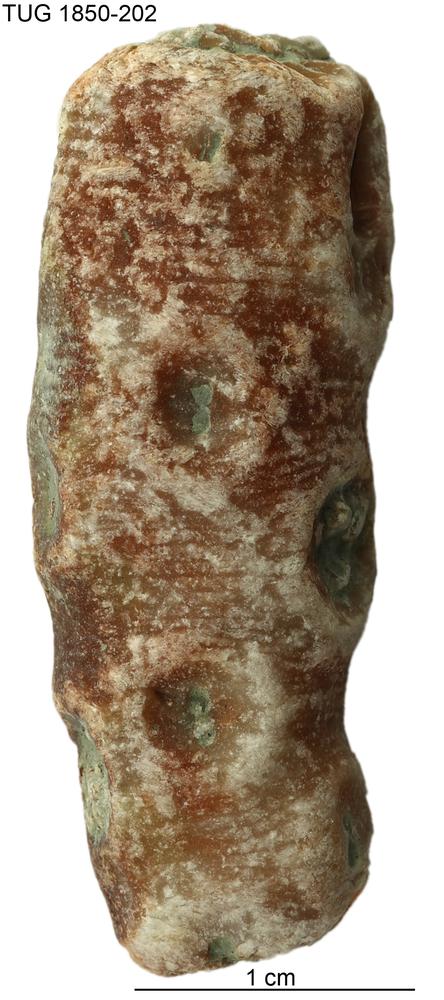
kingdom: Animalia
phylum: Echinodermata
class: Crinoidea
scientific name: Crinoidea
